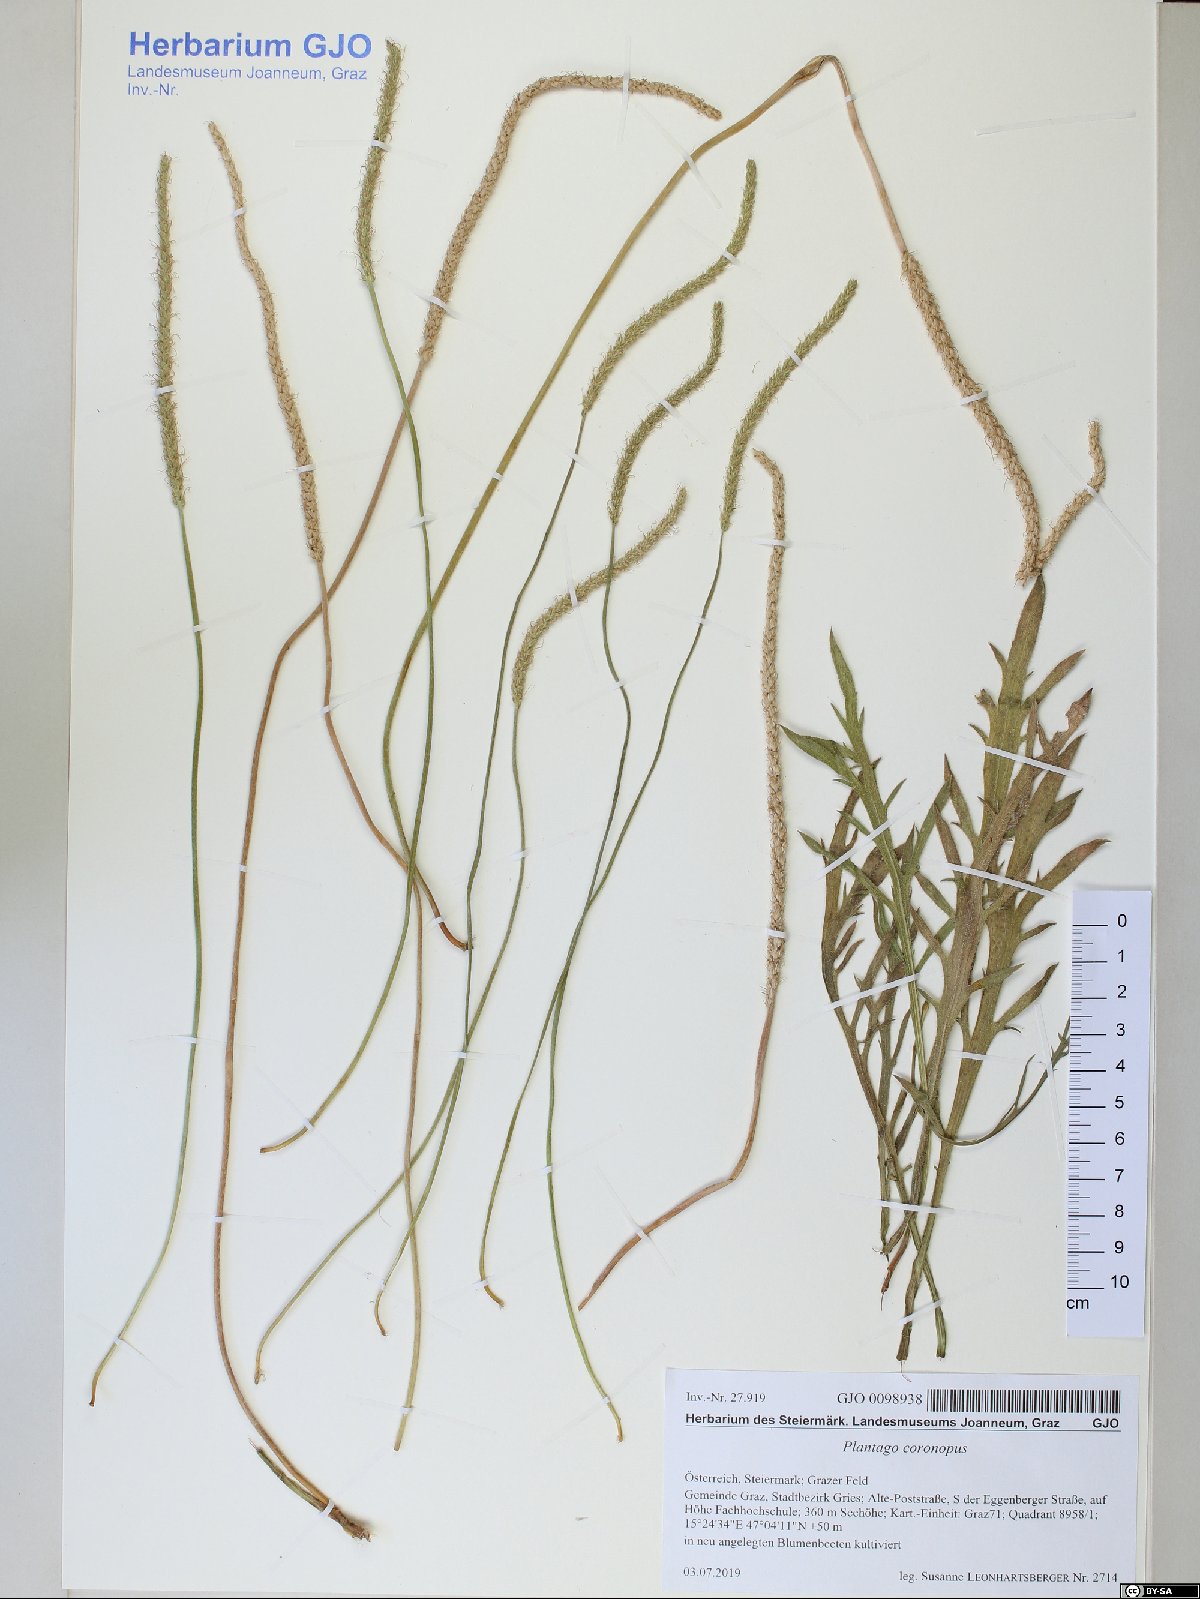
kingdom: Plantae
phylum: Tracheophyta
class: Magnoliopsida
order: Lamiales
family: Plantaginaceae
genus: Plantago
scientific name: Plantago coronopus
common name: Buck's-horn plantain
